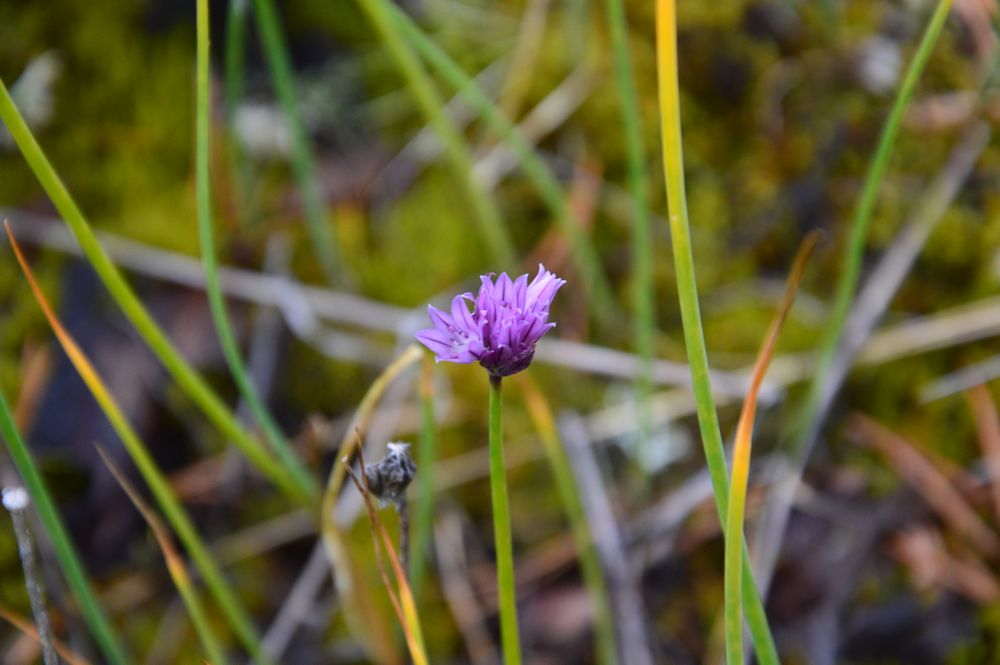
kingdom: Plantae
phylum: Tracheophyta
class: Liliopsida
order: Asparagales
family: Amaryllidaceae
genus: Allium
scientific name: Allium schoenoprasum
